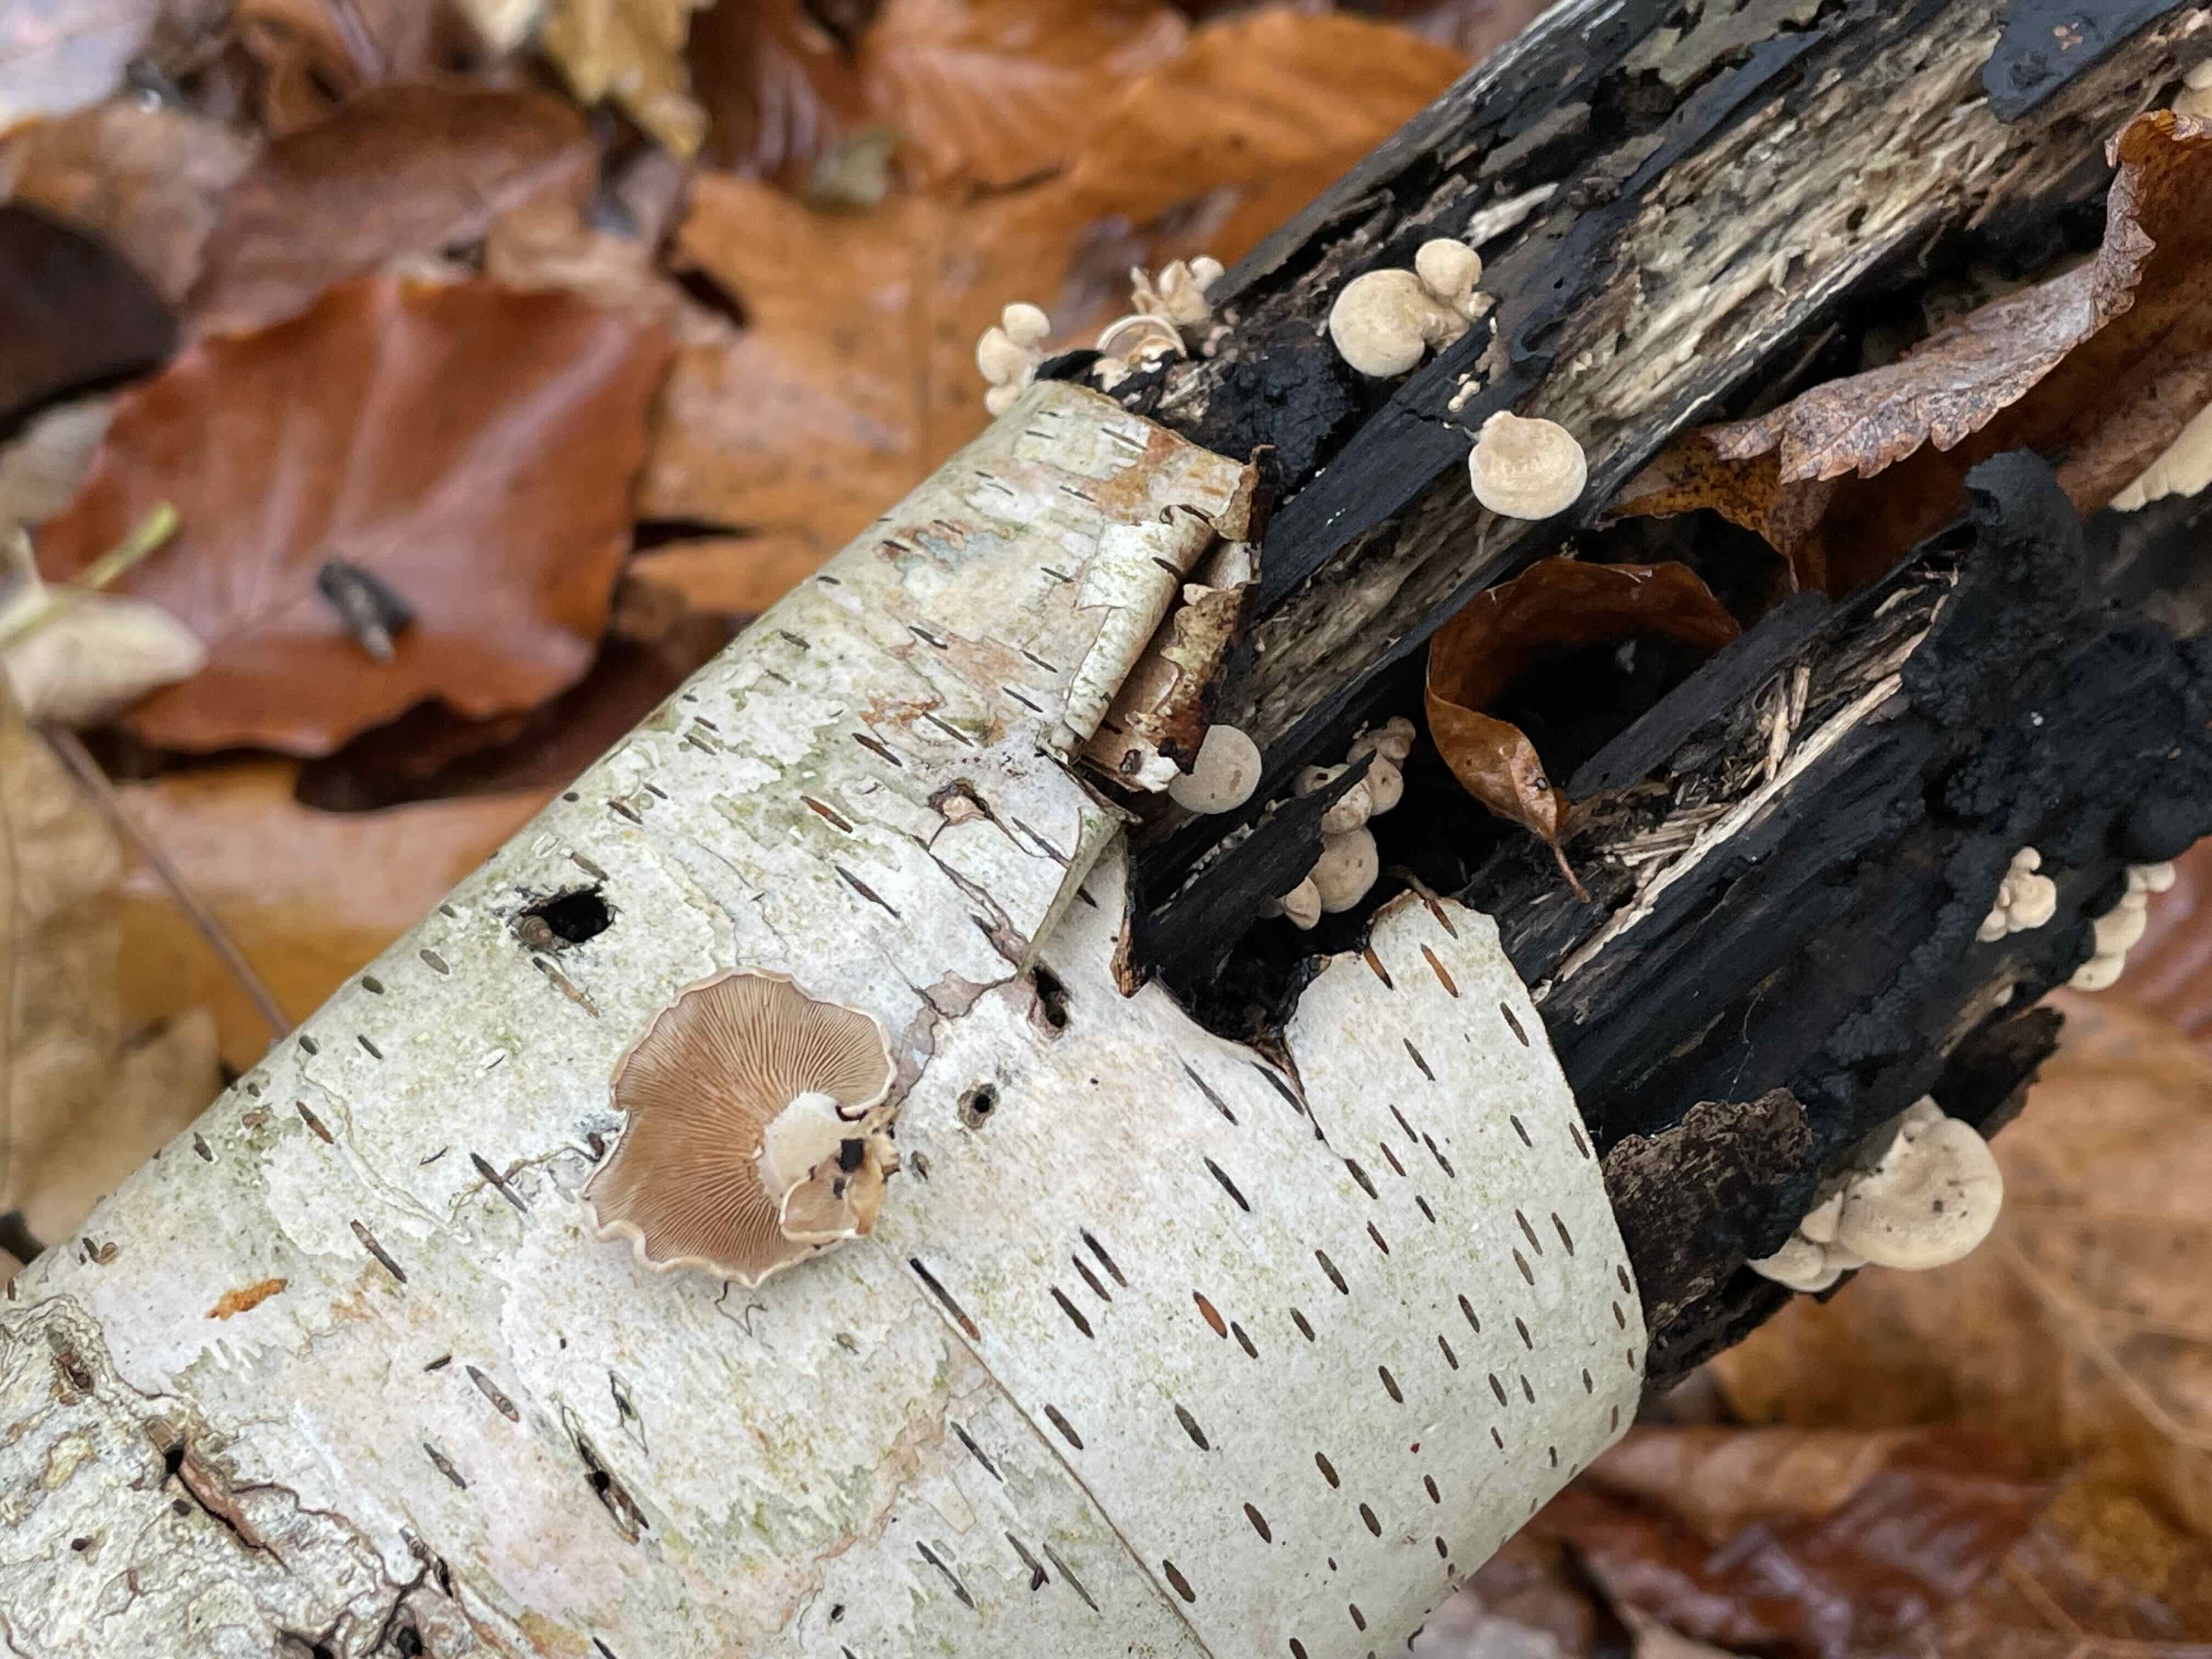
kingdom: Fungi
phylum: Basidiomycota
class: Agaricomycetes
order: Agaricales
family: Mycenaceae
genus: Panellus
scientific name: Panellus stipticus
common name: kliddet epaulethat
